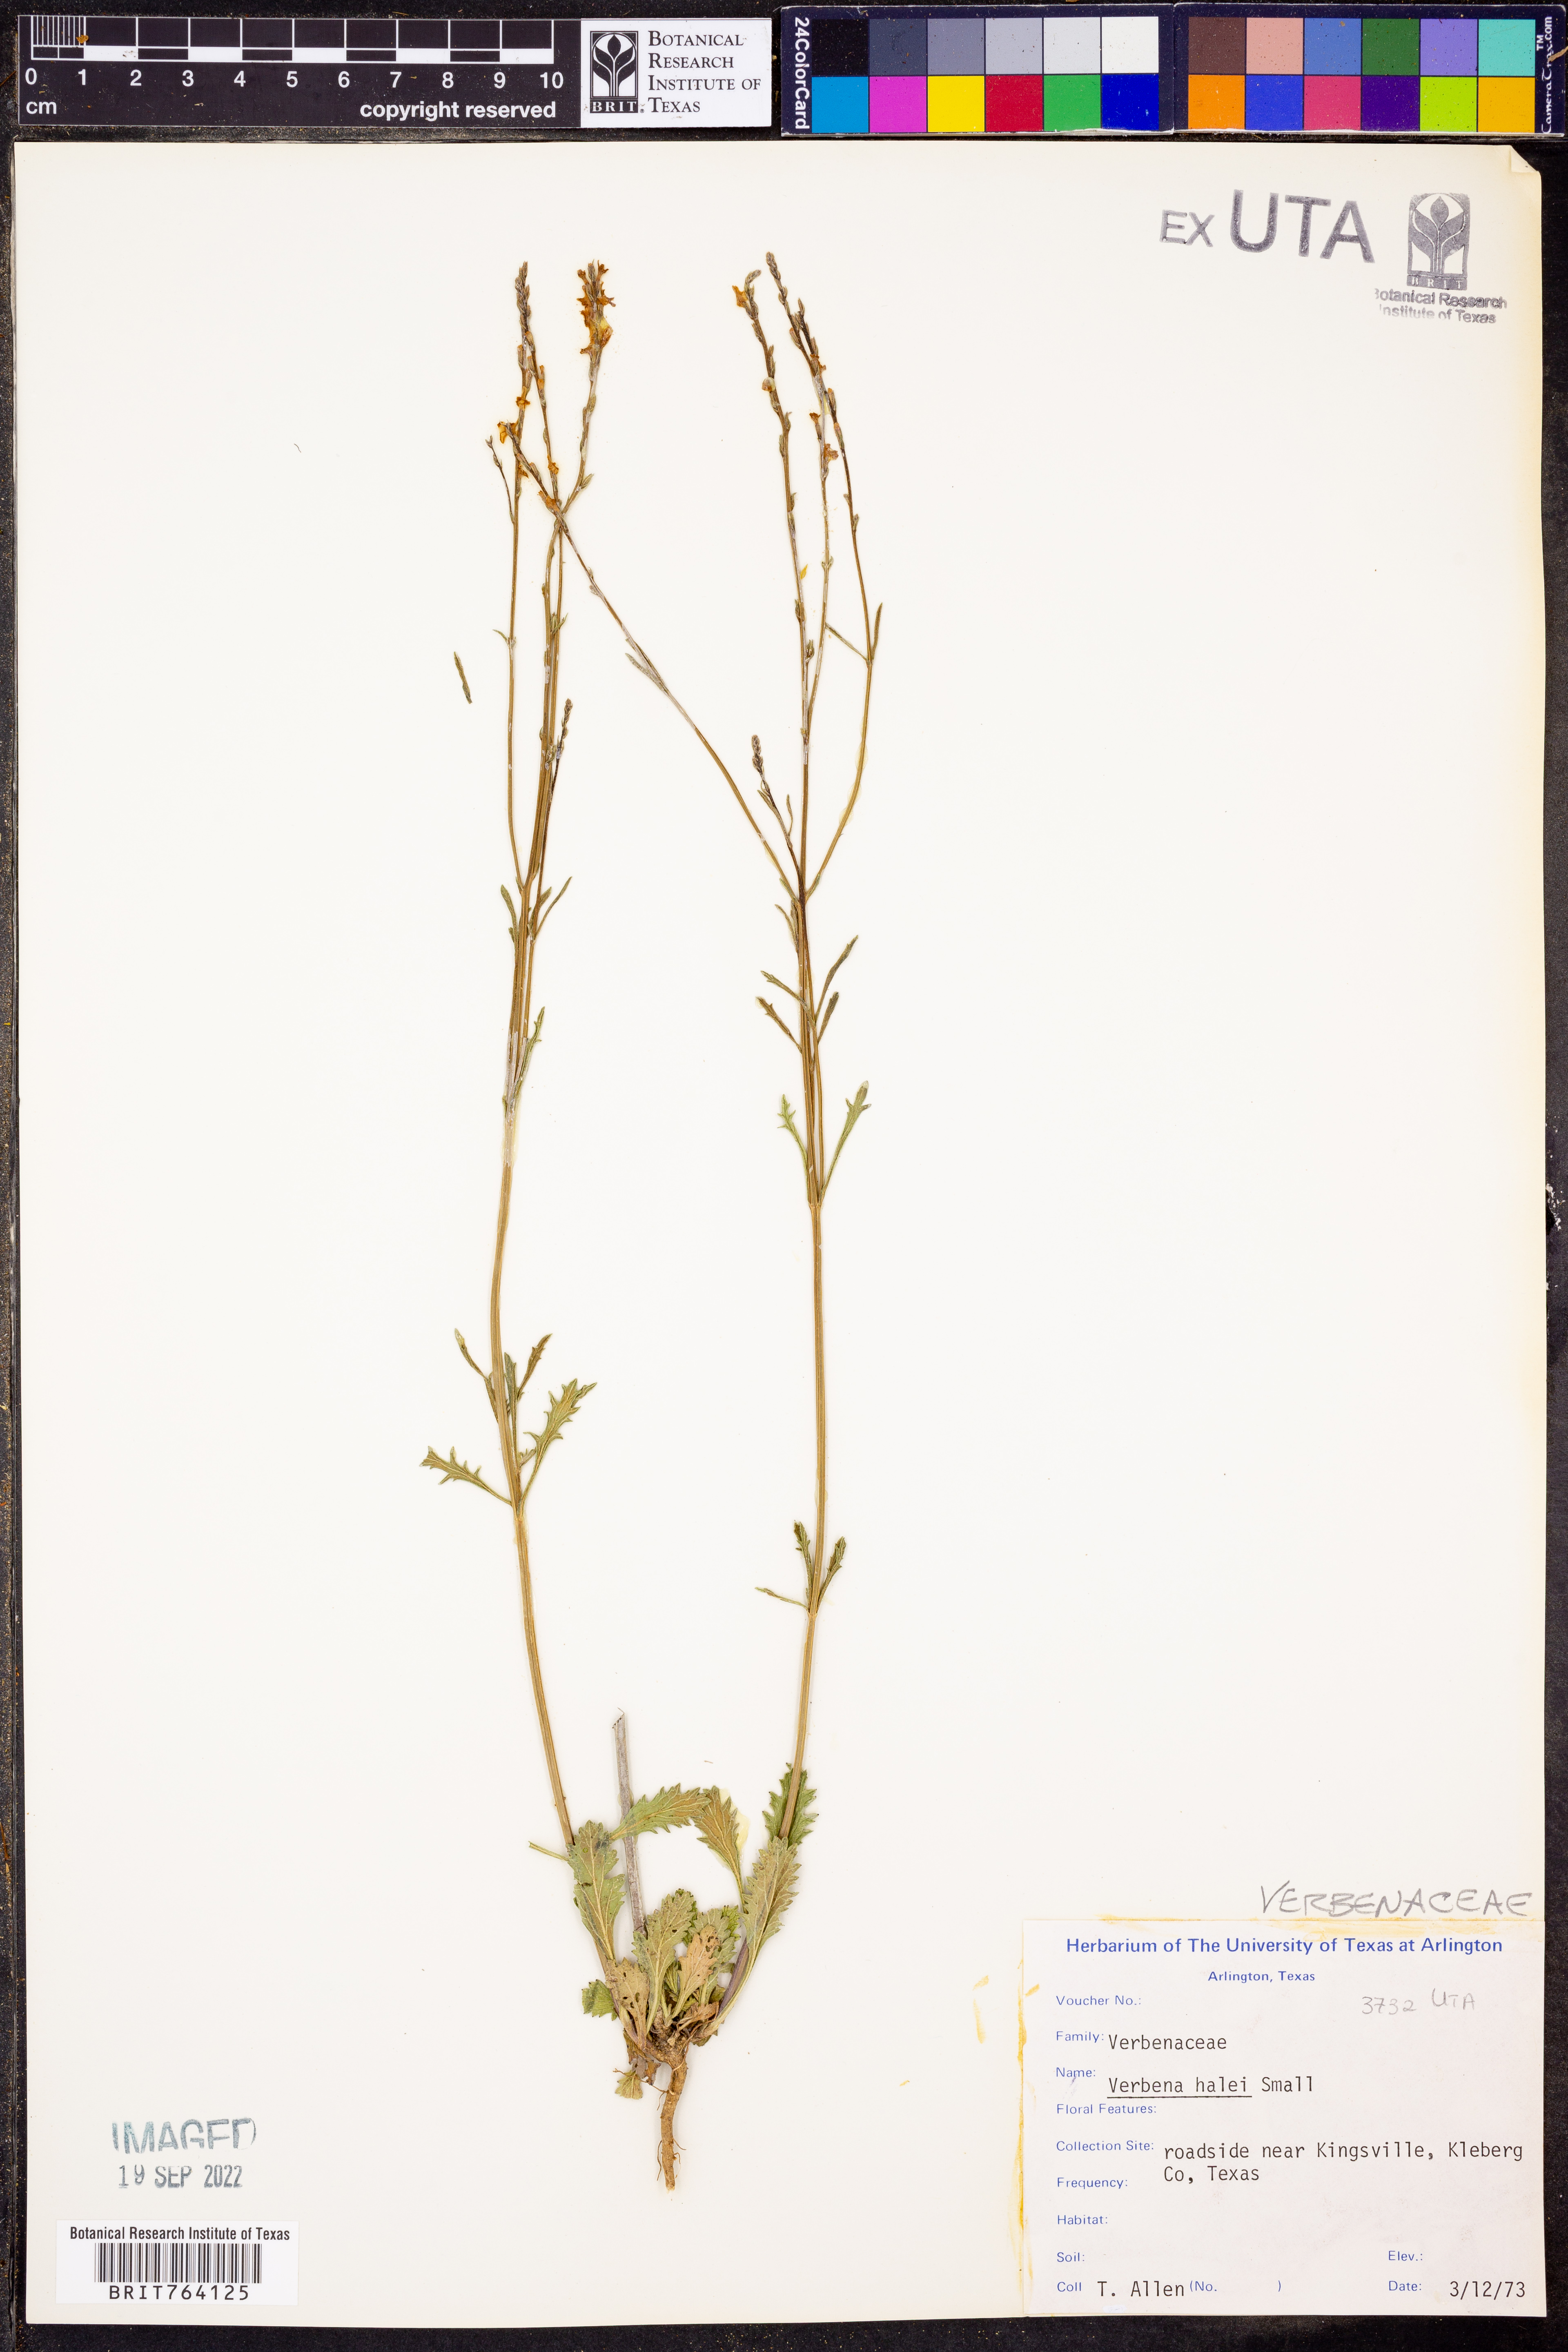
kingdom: Plantae
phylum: Tracheophyta
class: Magnoliopsida
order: Lamiales
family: Verbenaceae
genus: Verbena
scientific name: Verbena halei
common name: Texas vervain
